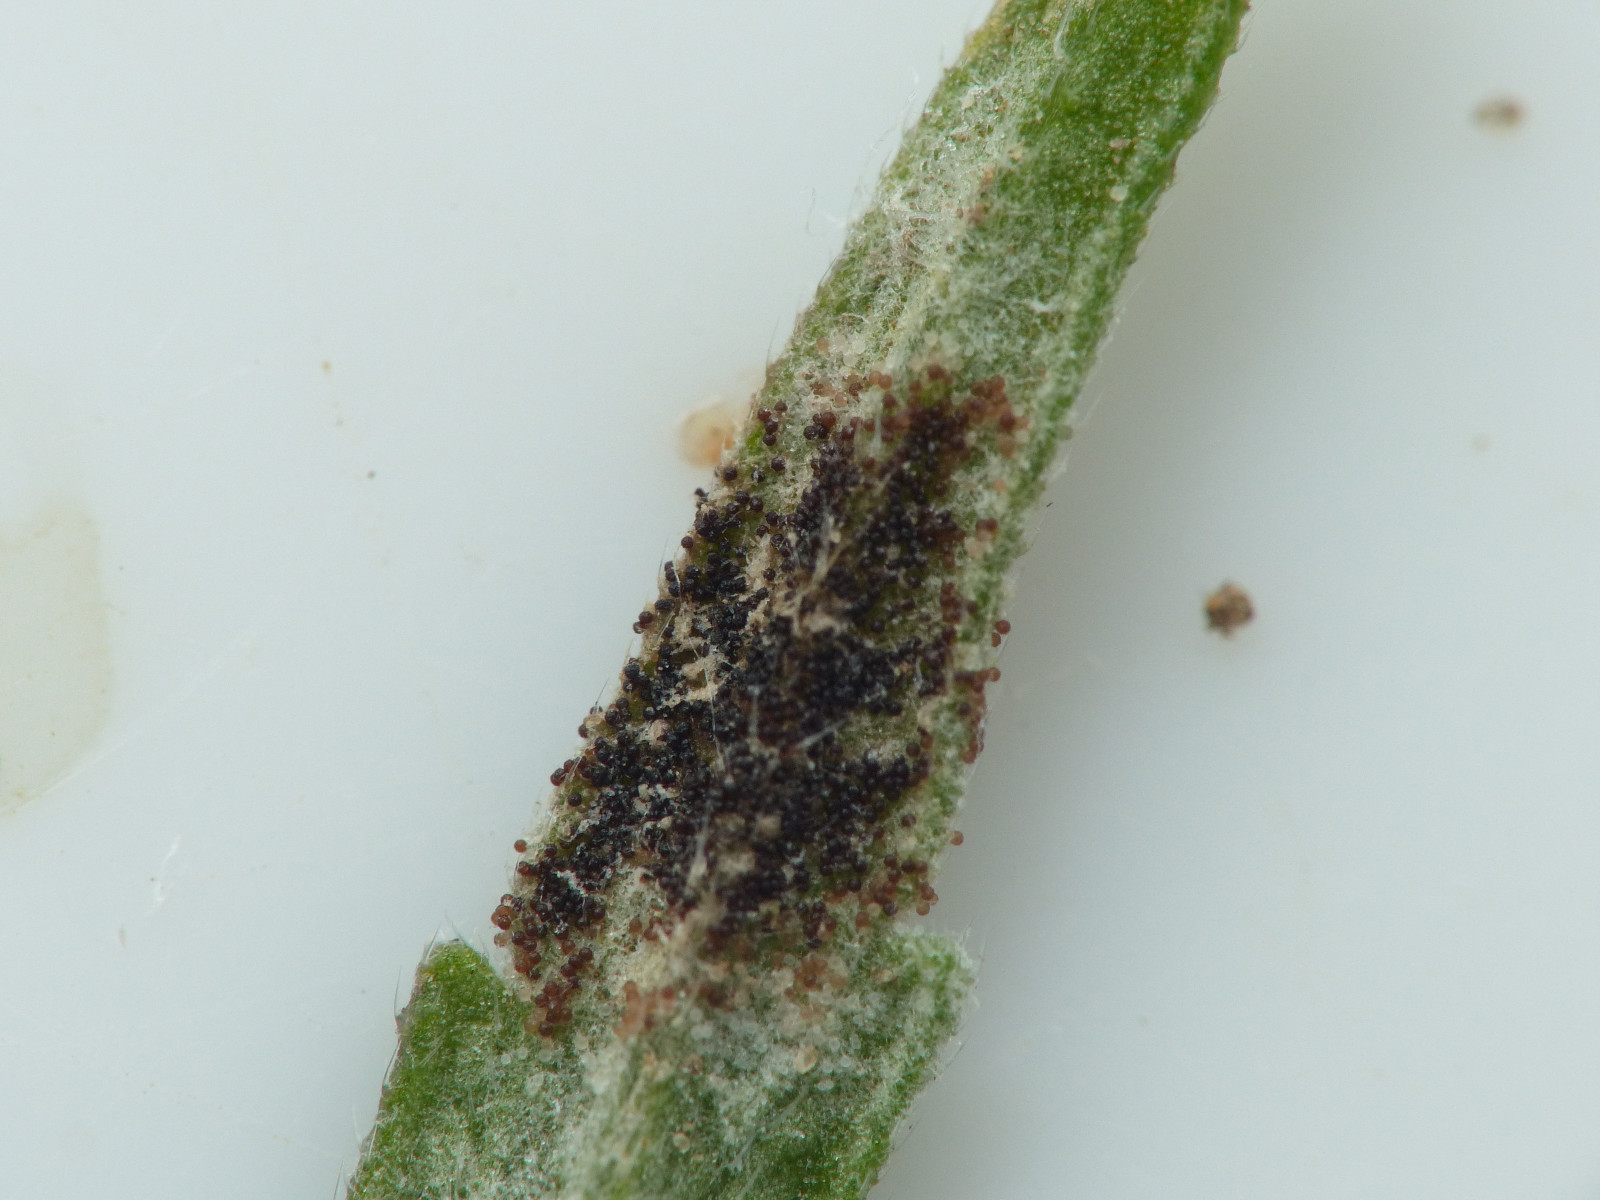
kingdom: Fungi
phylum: Ascomycota
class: Leotiomycetes
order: Helotiales
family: Erysiphaceae
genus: Podosphaera
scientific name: Podosphaera phtheirospermi
